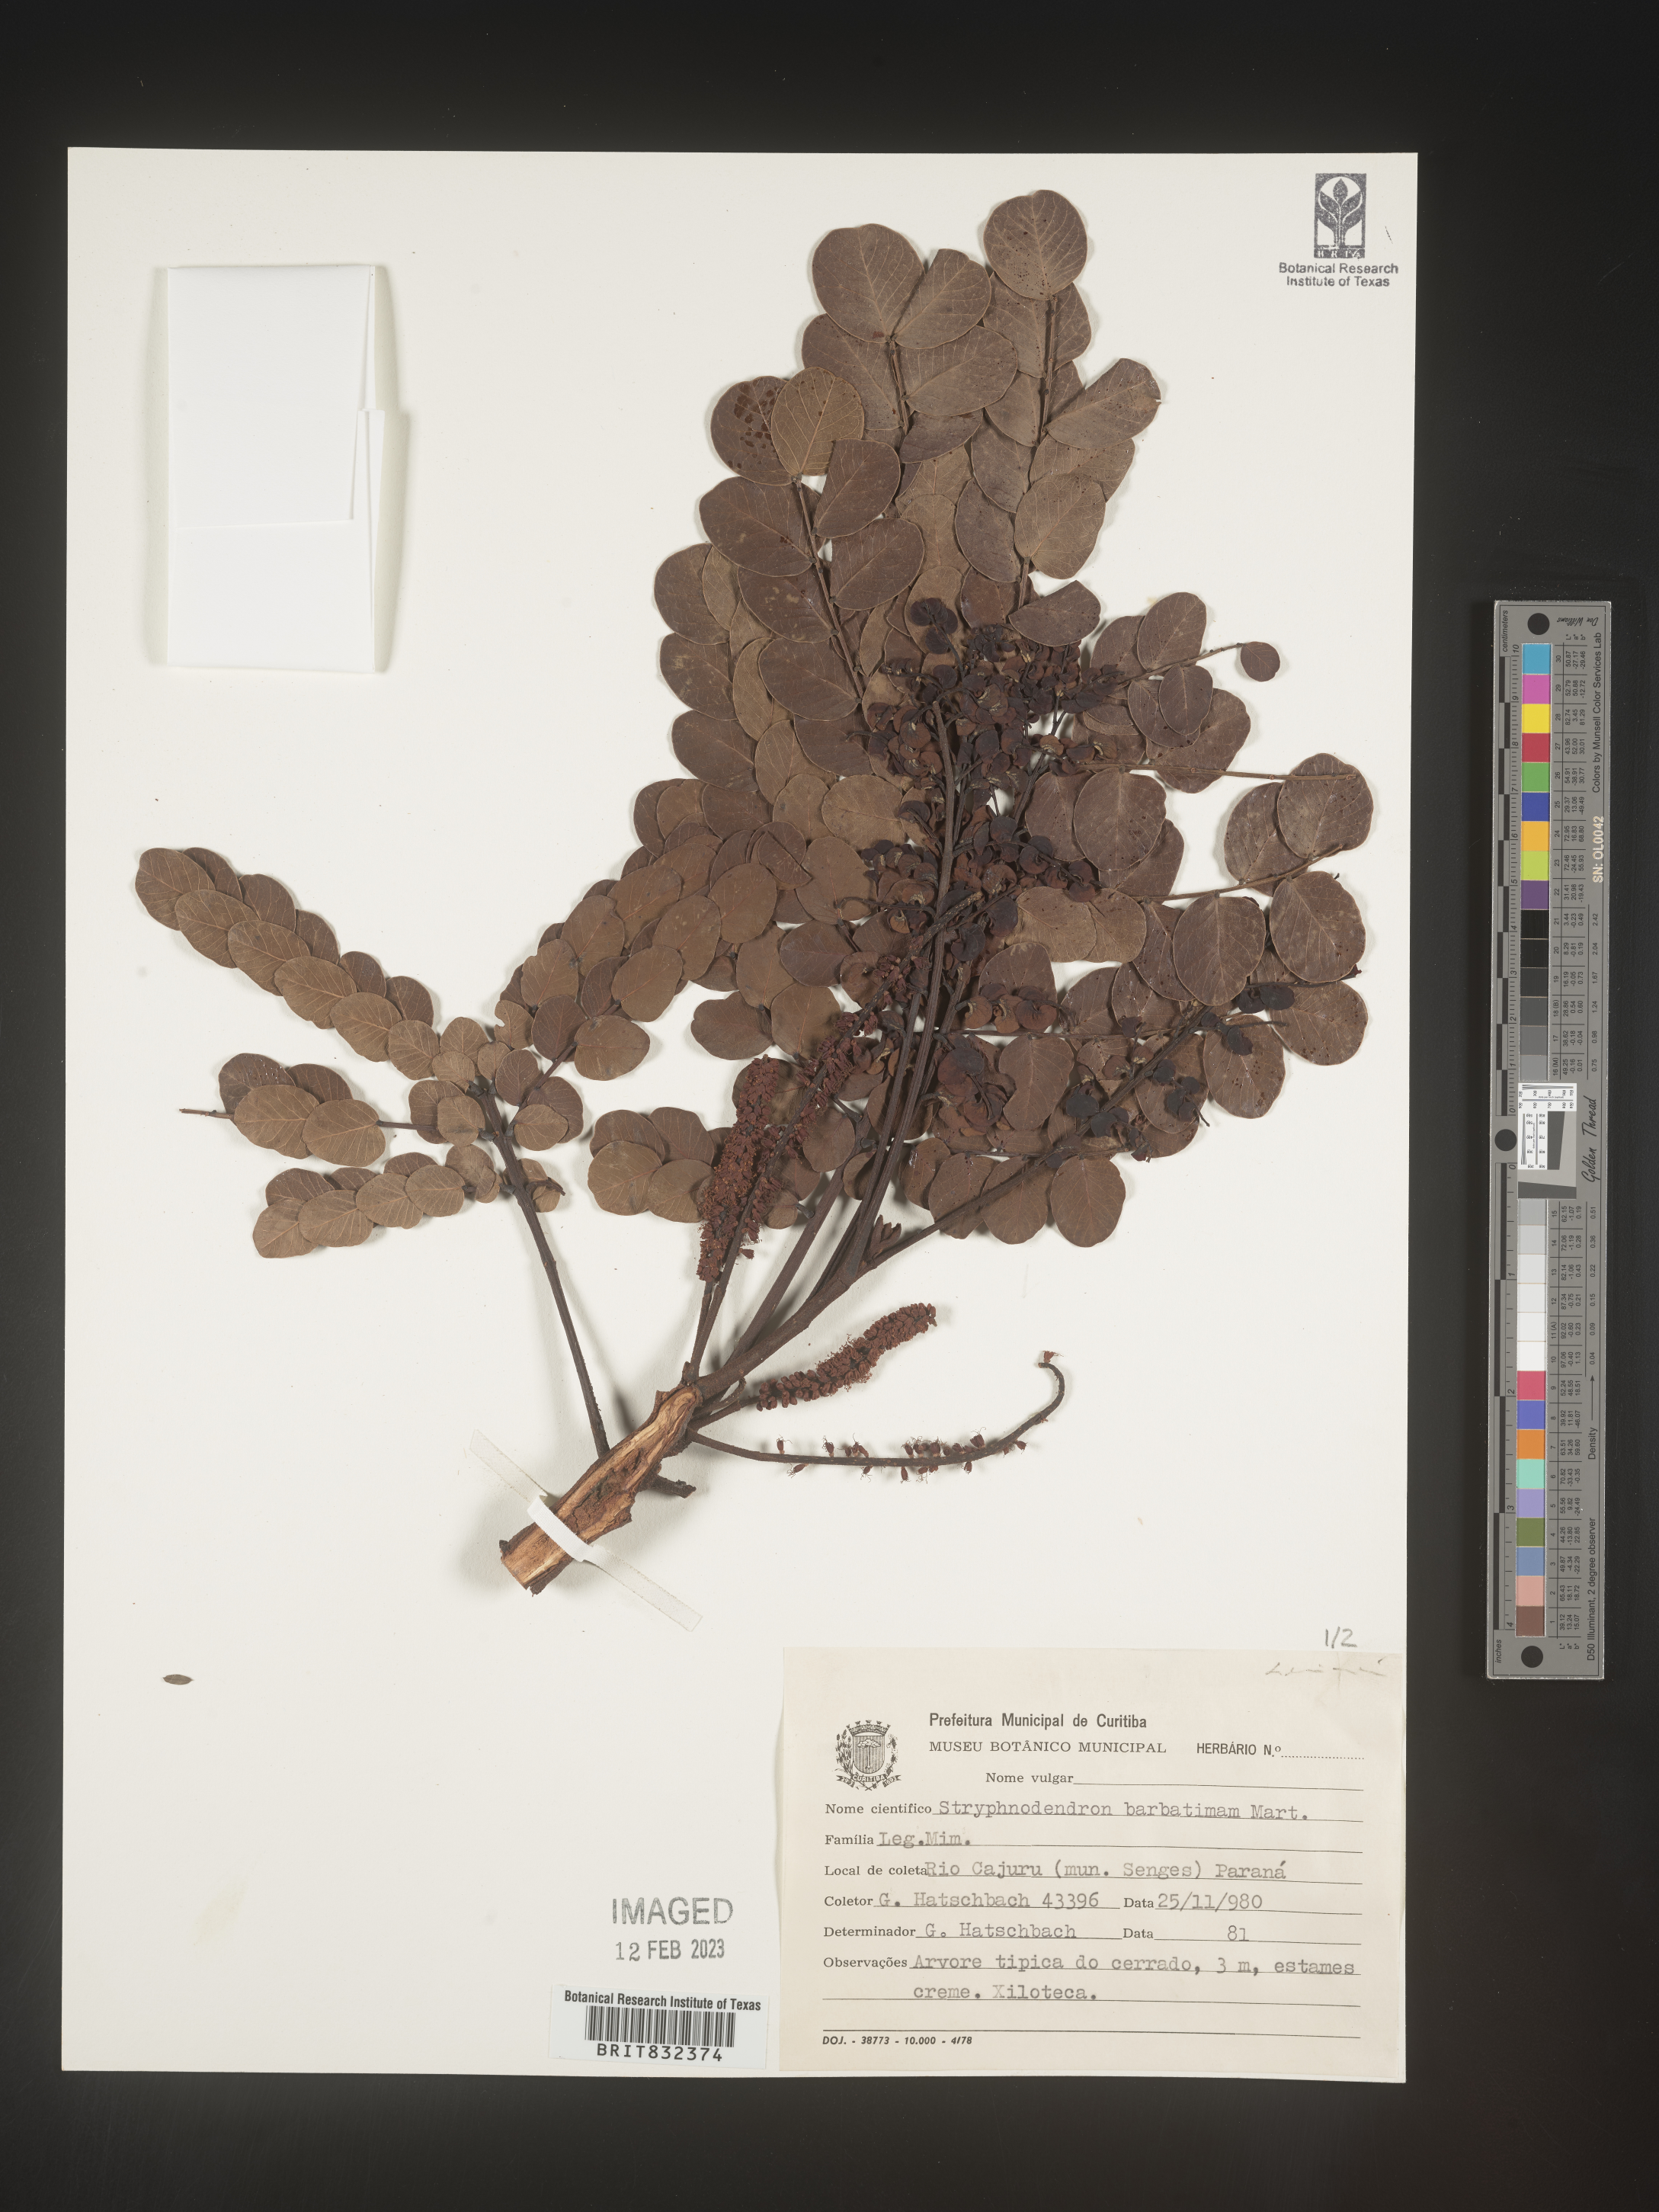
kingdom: Plantae
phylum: Tracheophyta
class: Magnoliopsida
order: Fabales
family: Fabaceae
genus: Stryphnodendron
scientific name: Stryphnodendron
